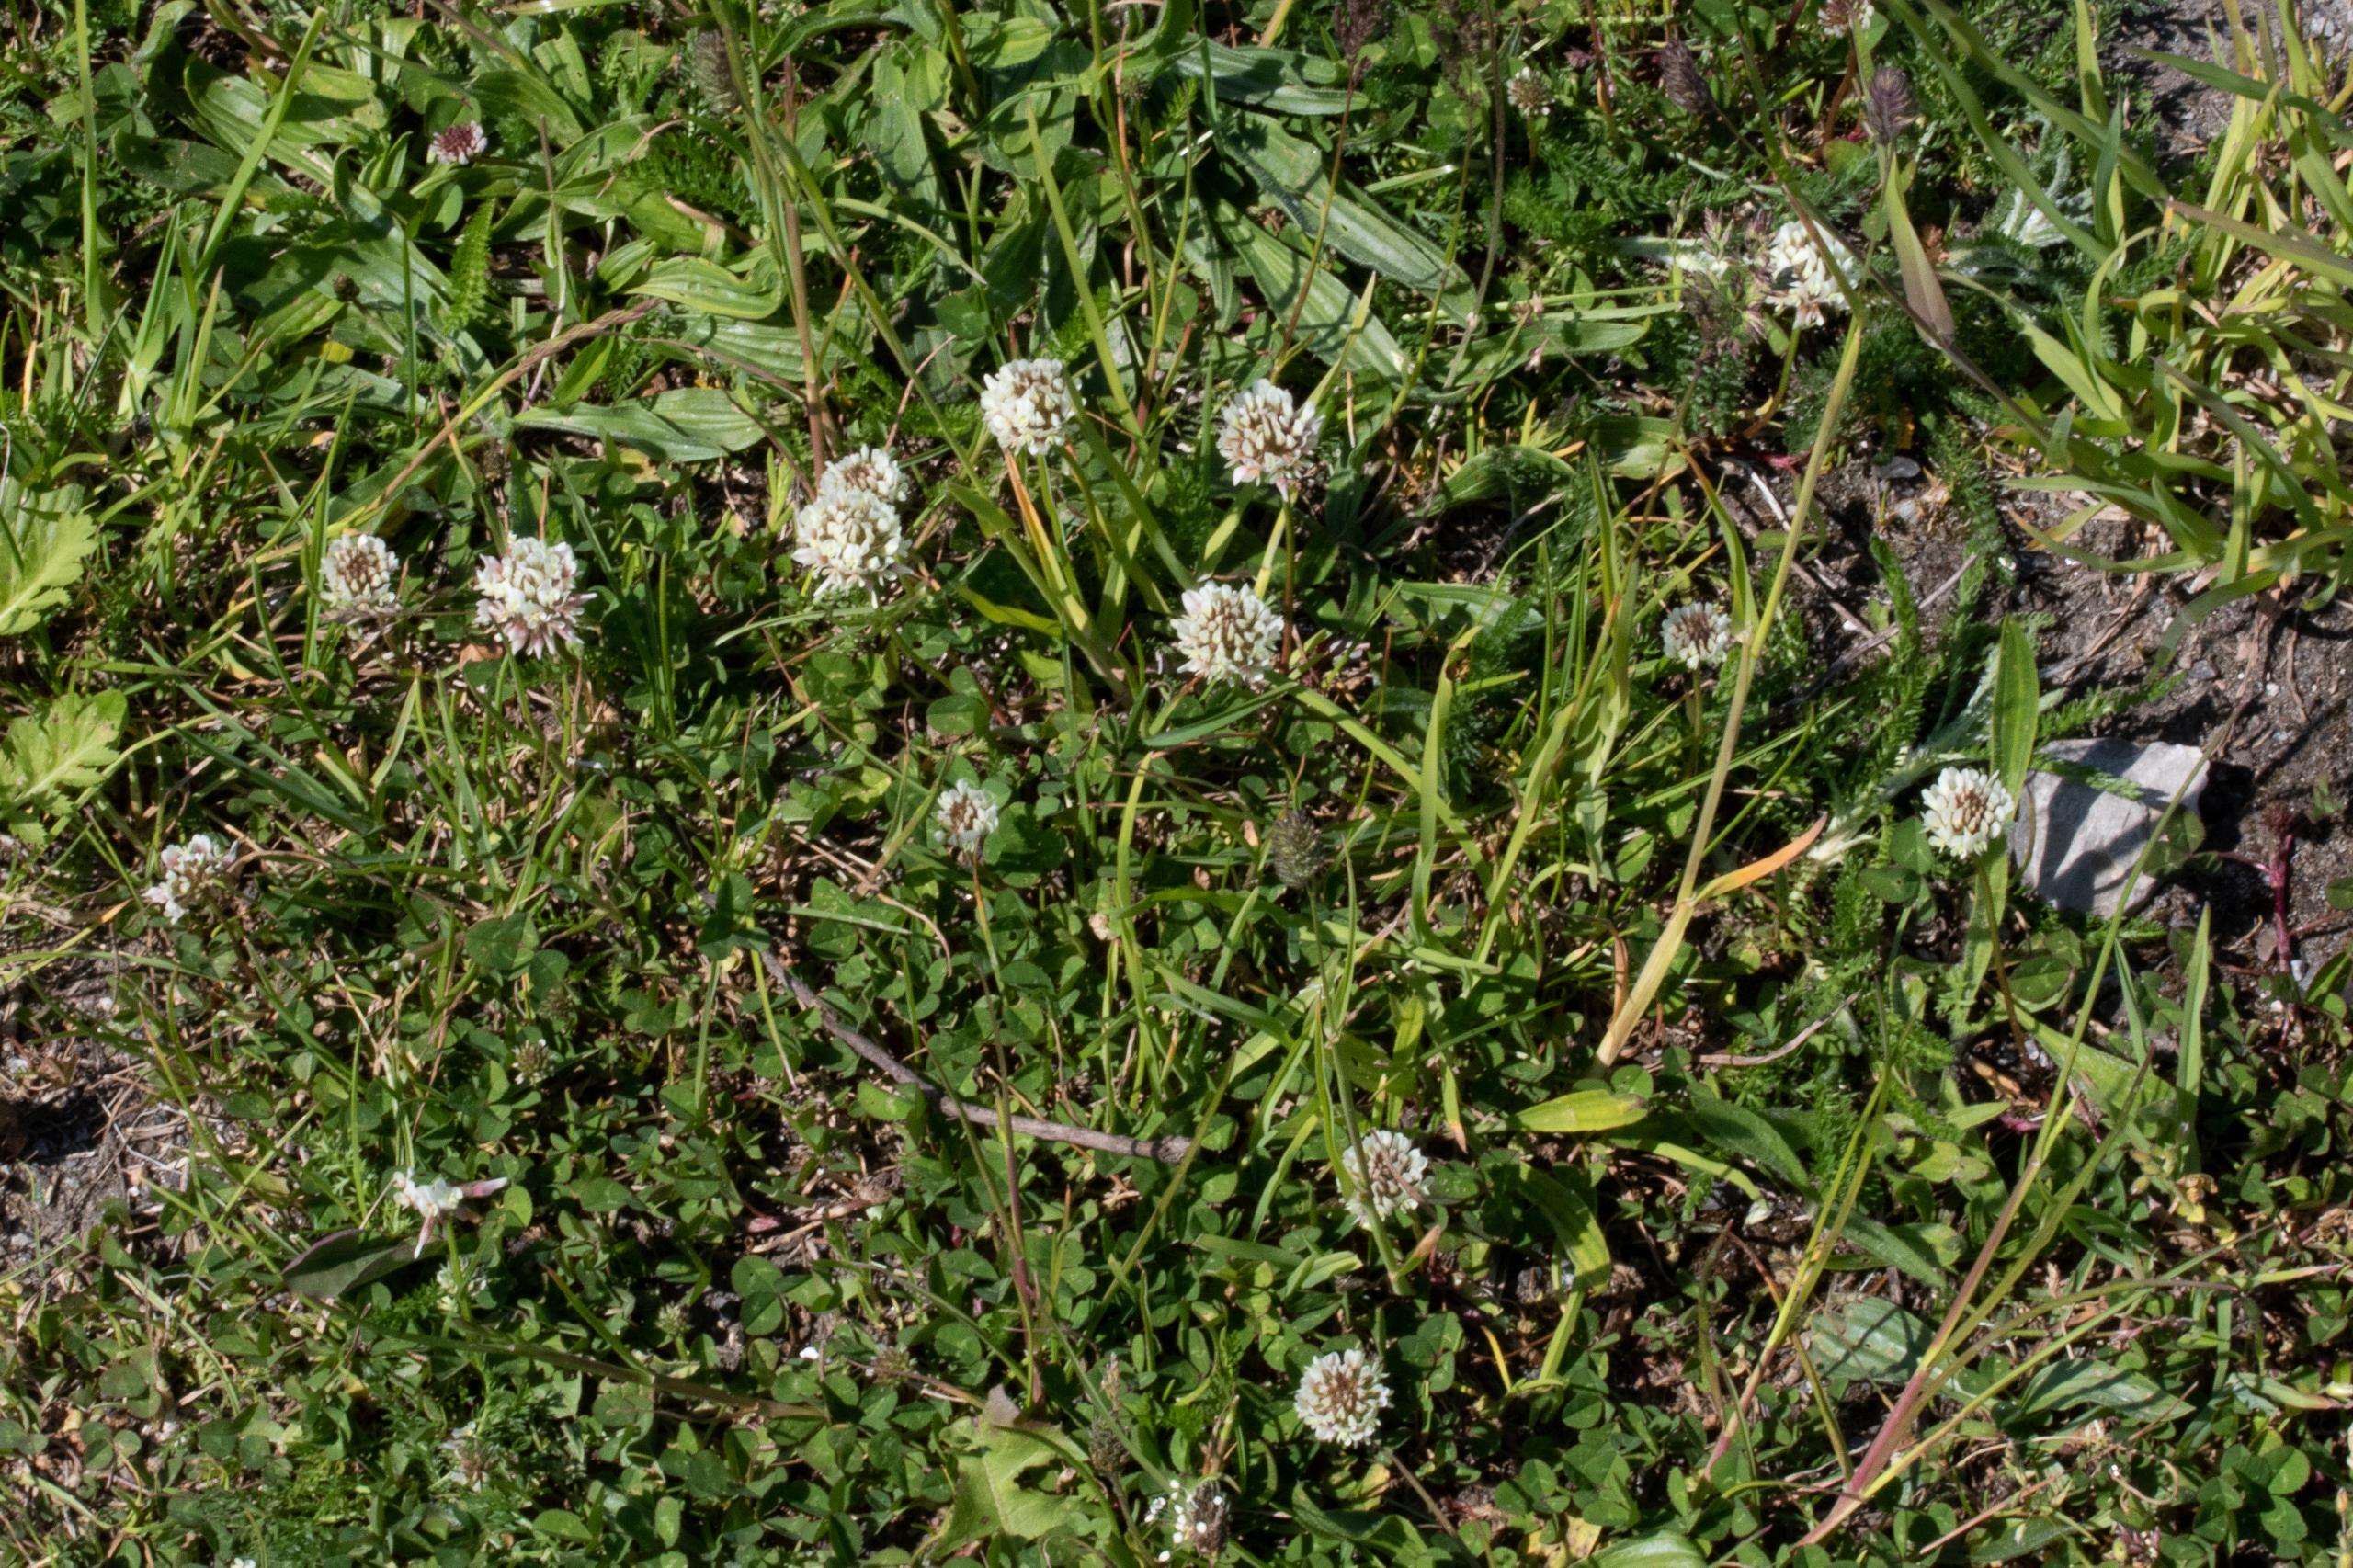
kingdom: Plantae
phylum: Tracheophyta
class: Magnoliopsida
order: Fabales
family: Fabaceae
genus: Trifolium
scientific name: Trifolium repens
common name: Hvid-kløver
